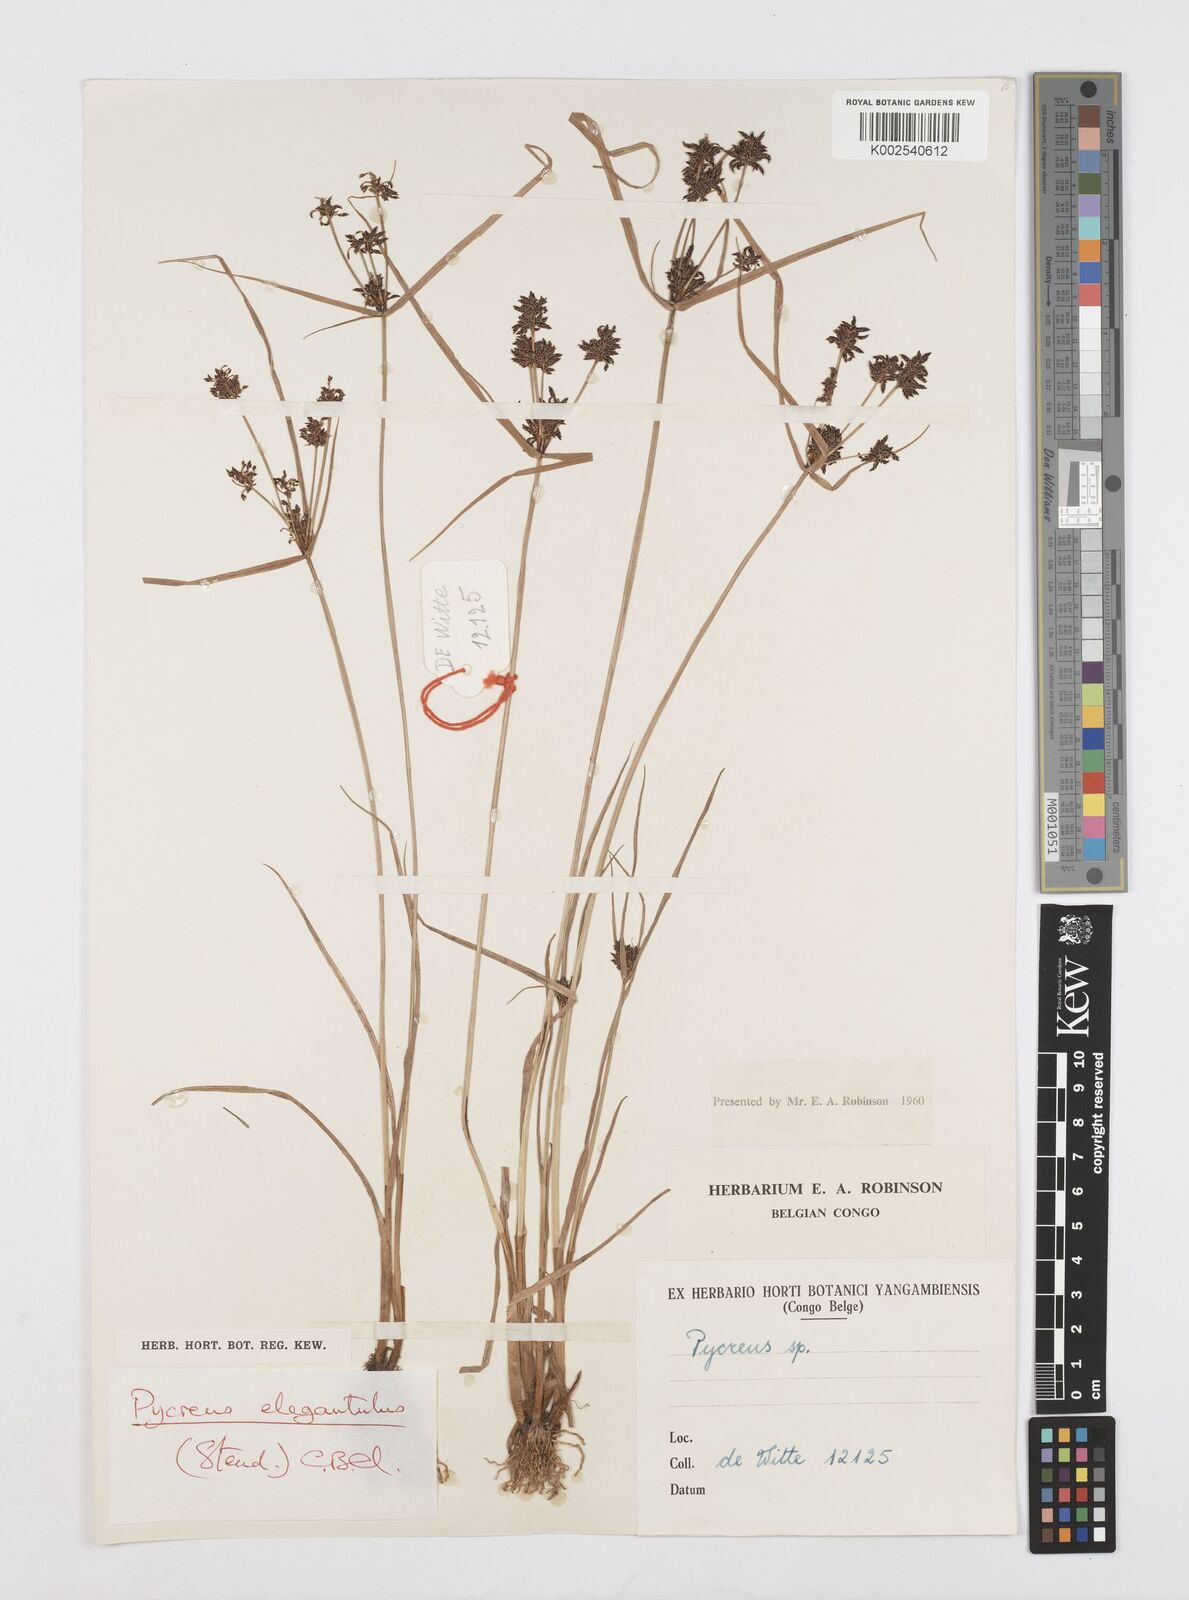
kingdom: Plantae
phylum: Tracheophyta
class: Liliopsida
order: Poales
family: Cyperaceae
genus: Cyperus
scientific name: Cyperus elegantulus
